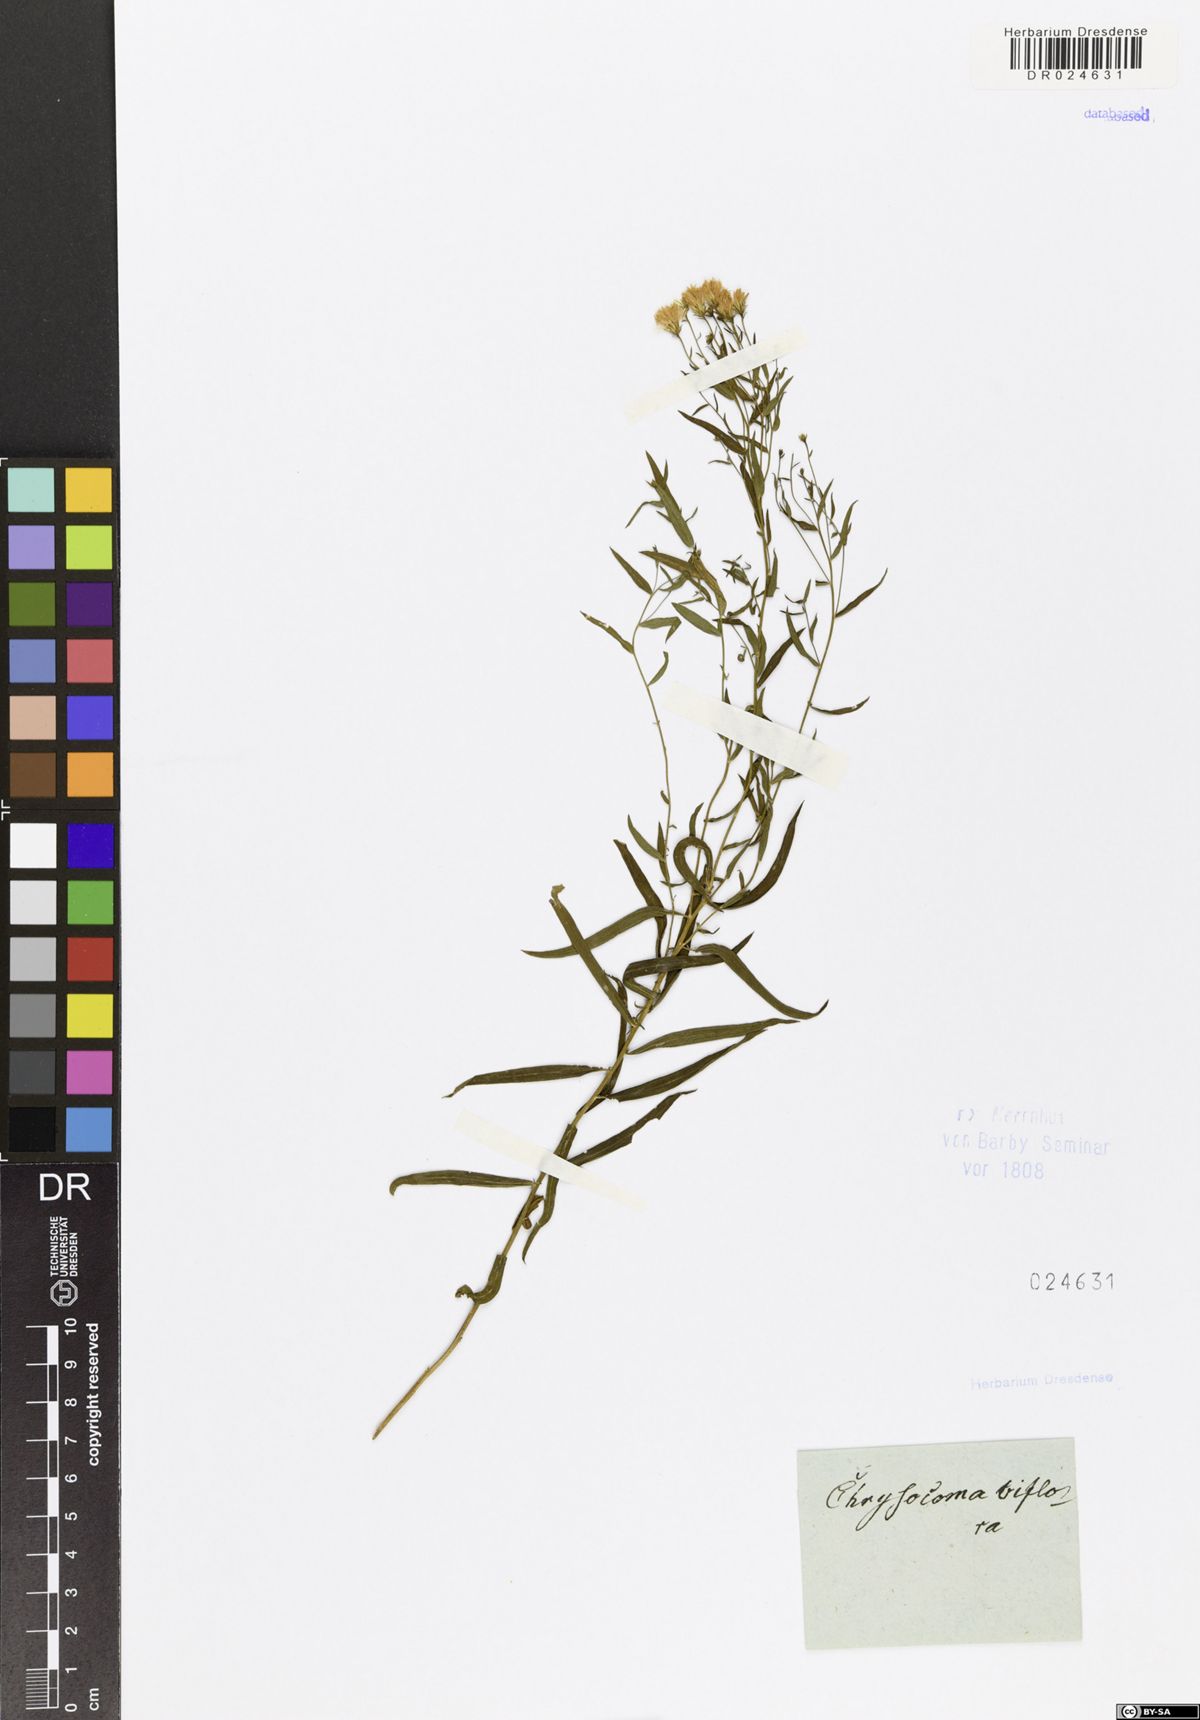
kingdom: Plantae
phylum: Tracheophyta
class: Magnoliopsida
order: Asterales
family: Asteraceae
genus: Galatella
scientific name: Galatella biflora
